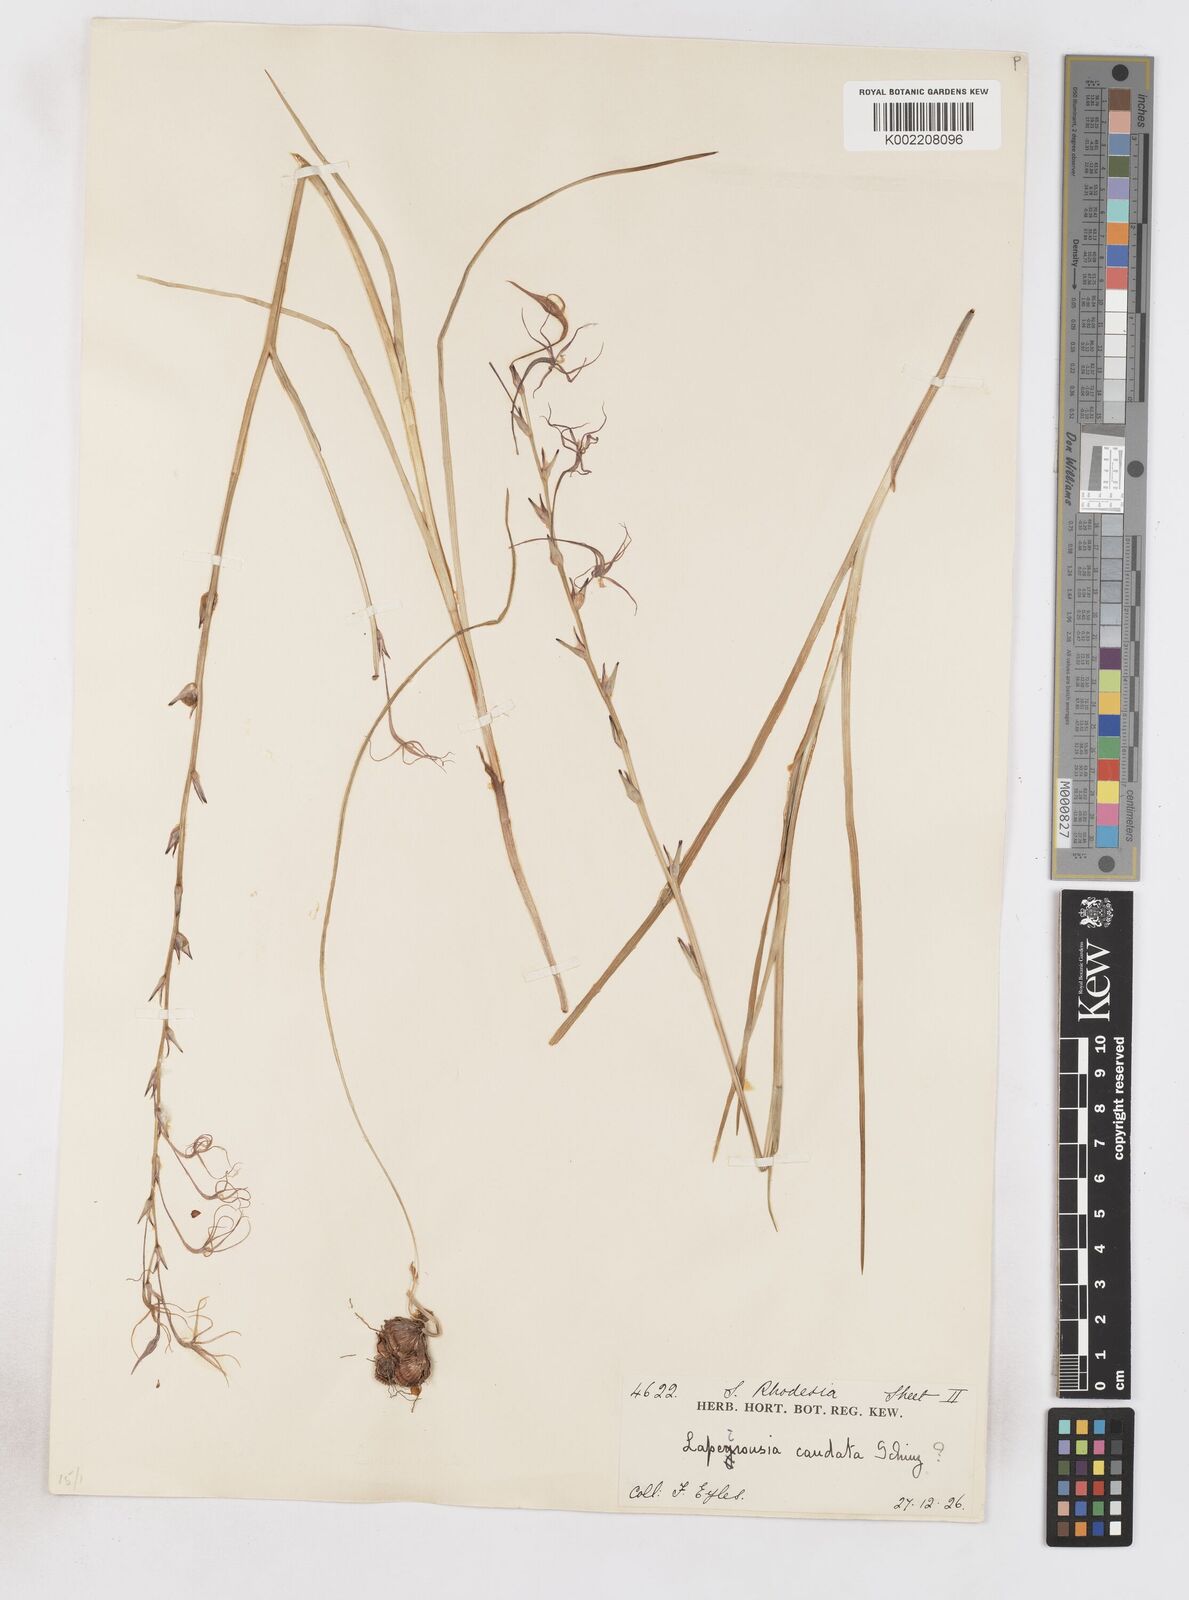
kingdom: Plantae
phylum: Tracheophyta
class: Liliopsida
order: Asparagales
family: Iridaceae
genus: Lapeirousia
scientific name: Lapeirousia caudata
